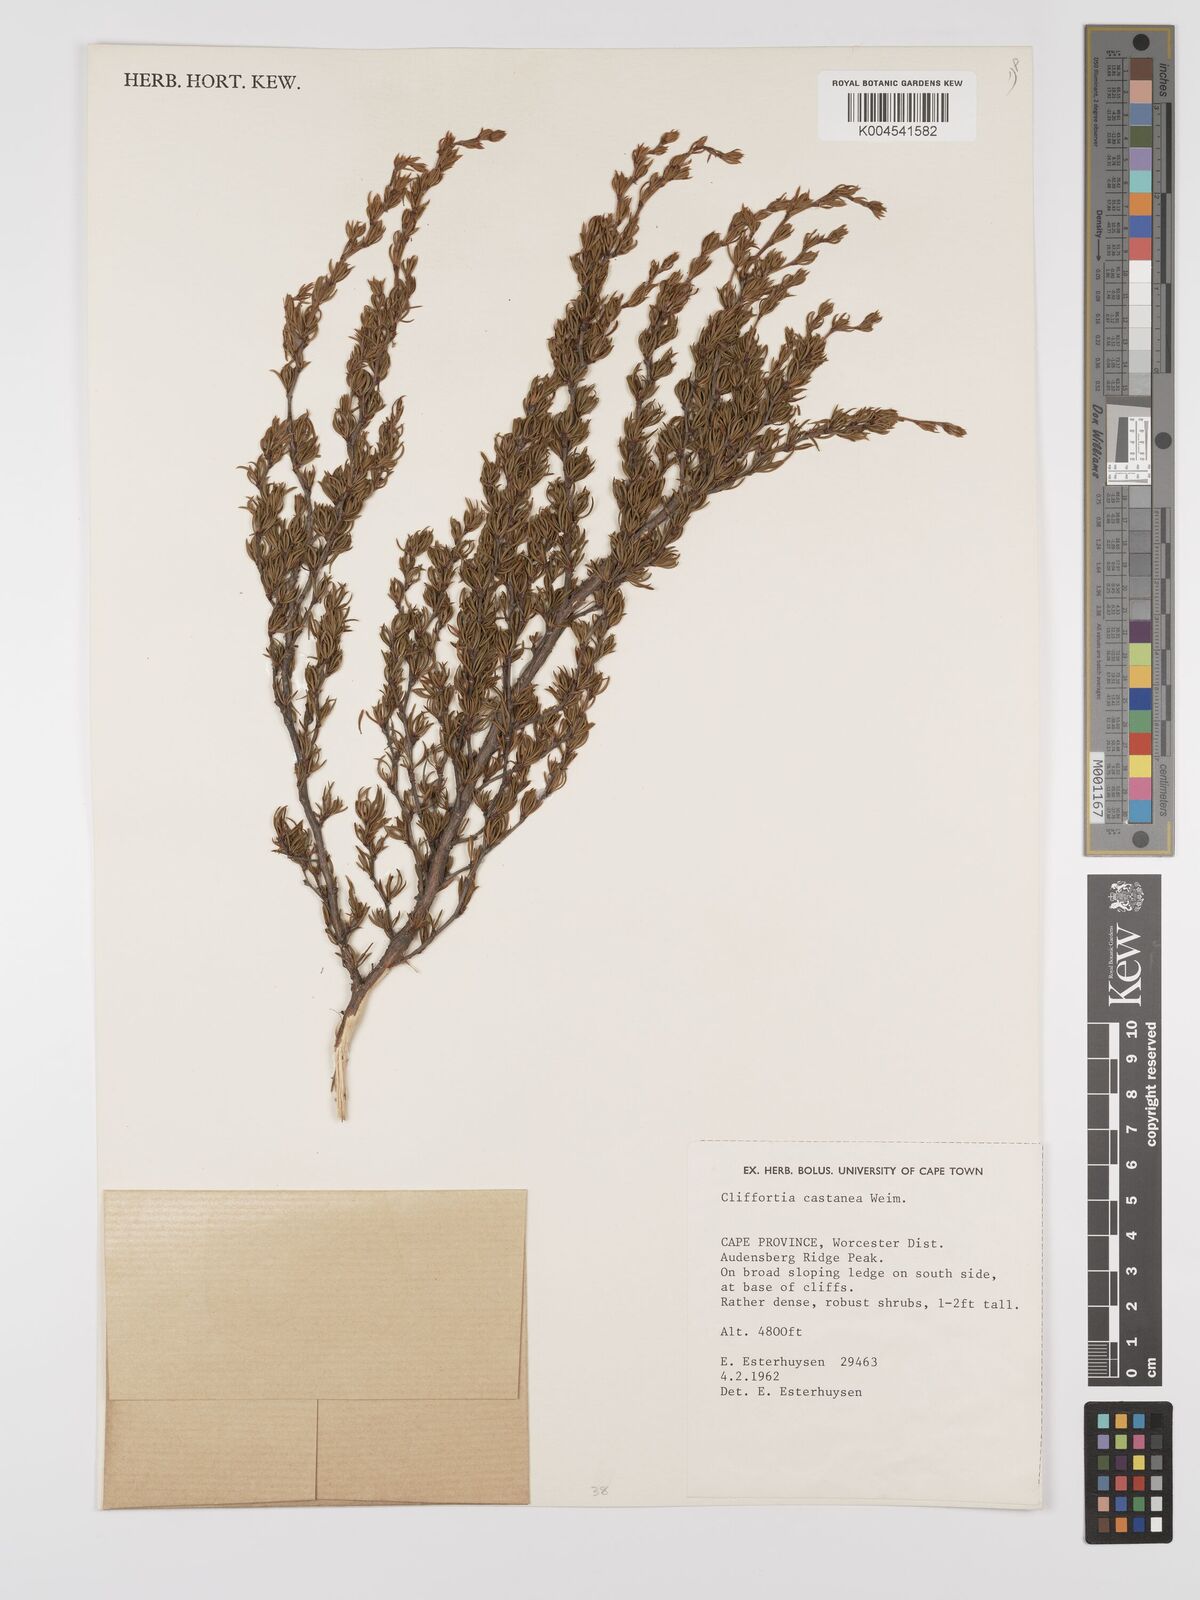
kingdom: Plantae
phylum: Tracheophyta
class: Magnoliopsida
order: Rosales
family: Rosaceae
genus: Cliffortia
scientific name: Cliffortia castanea
